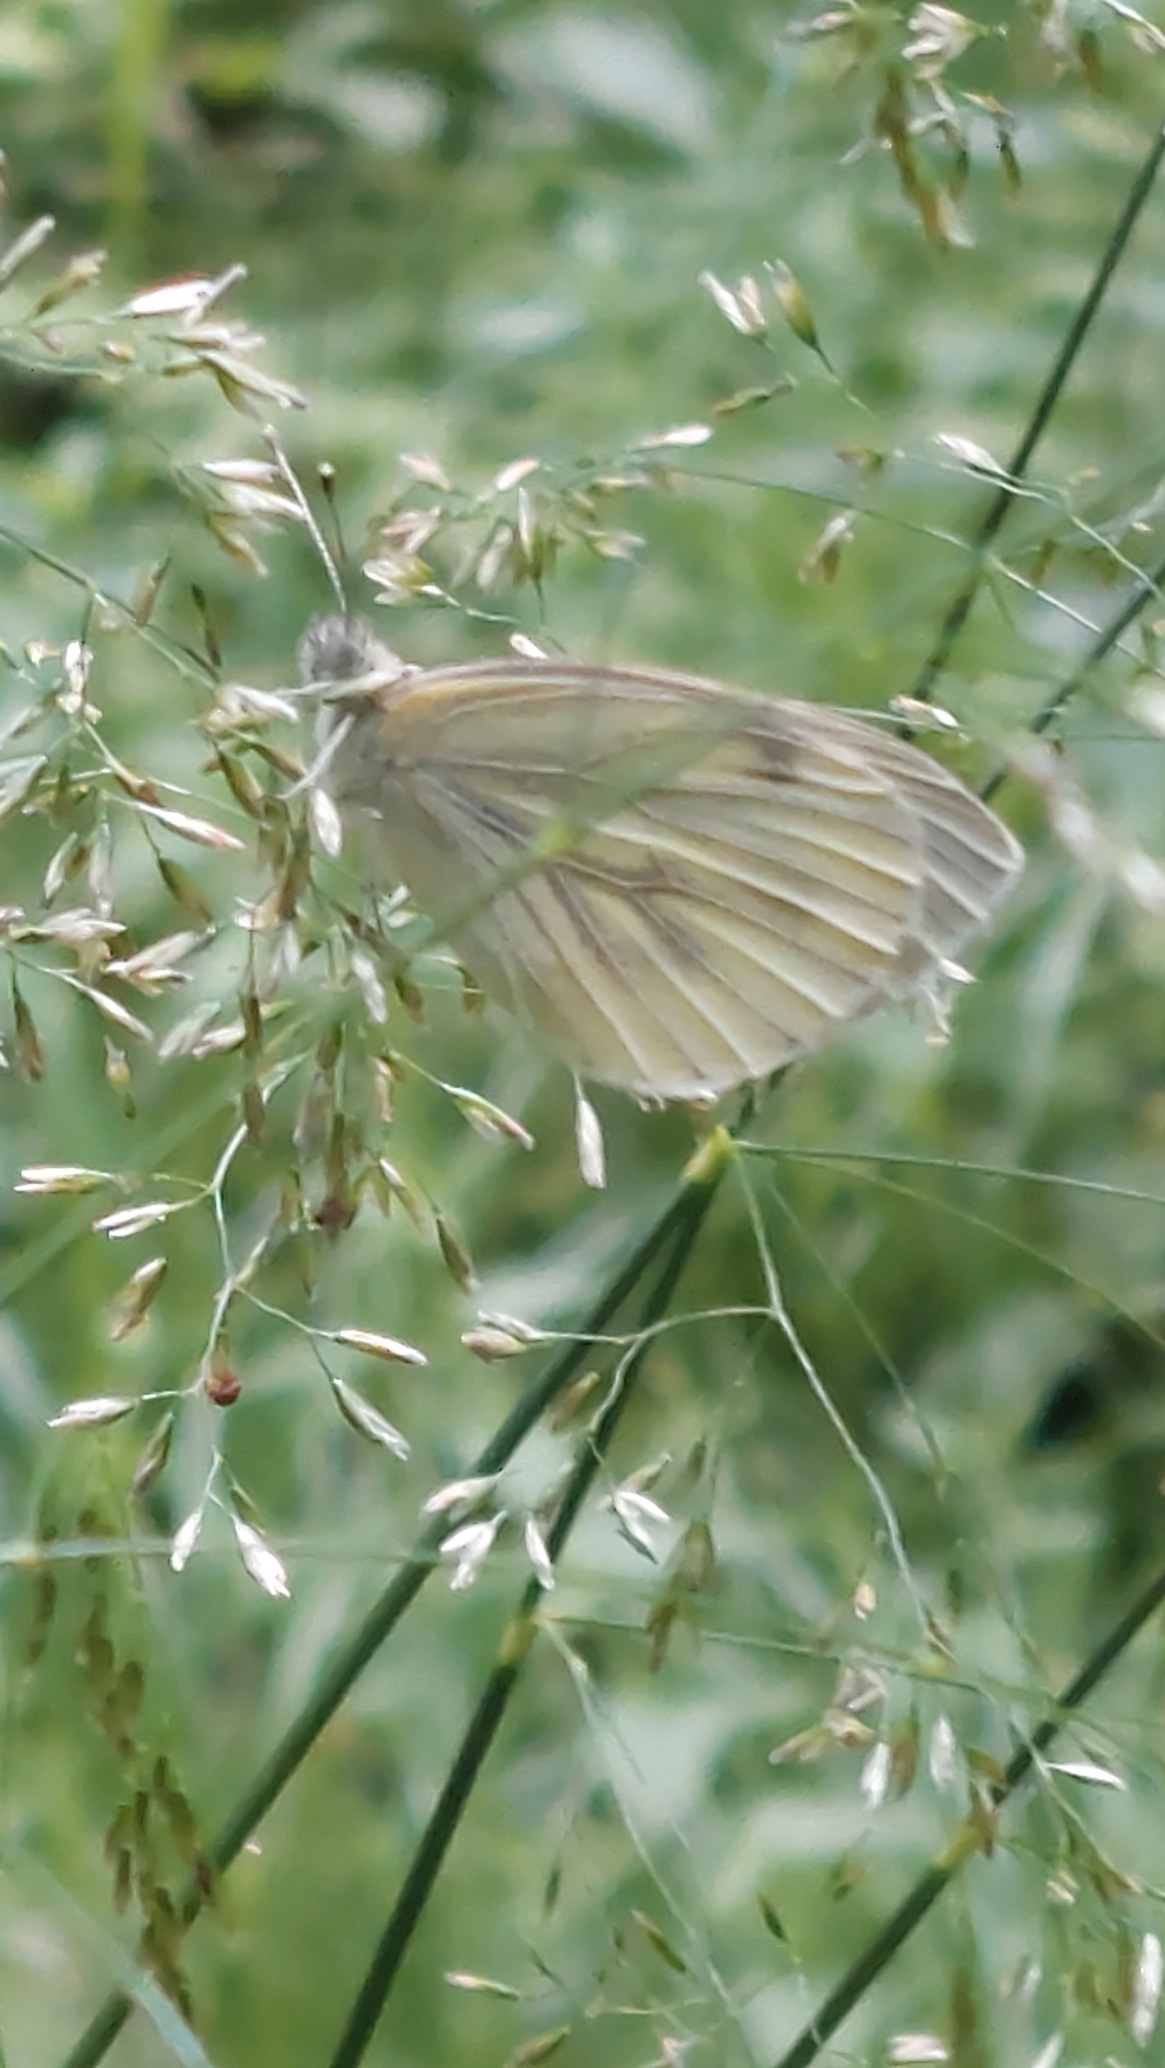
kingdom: Animalia
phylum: Arthropoda
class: Insecta
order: Lepidoptera
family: Pieridae
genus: Pieris
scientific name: Pieris napi
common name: Grønåret kålsommerfugl
